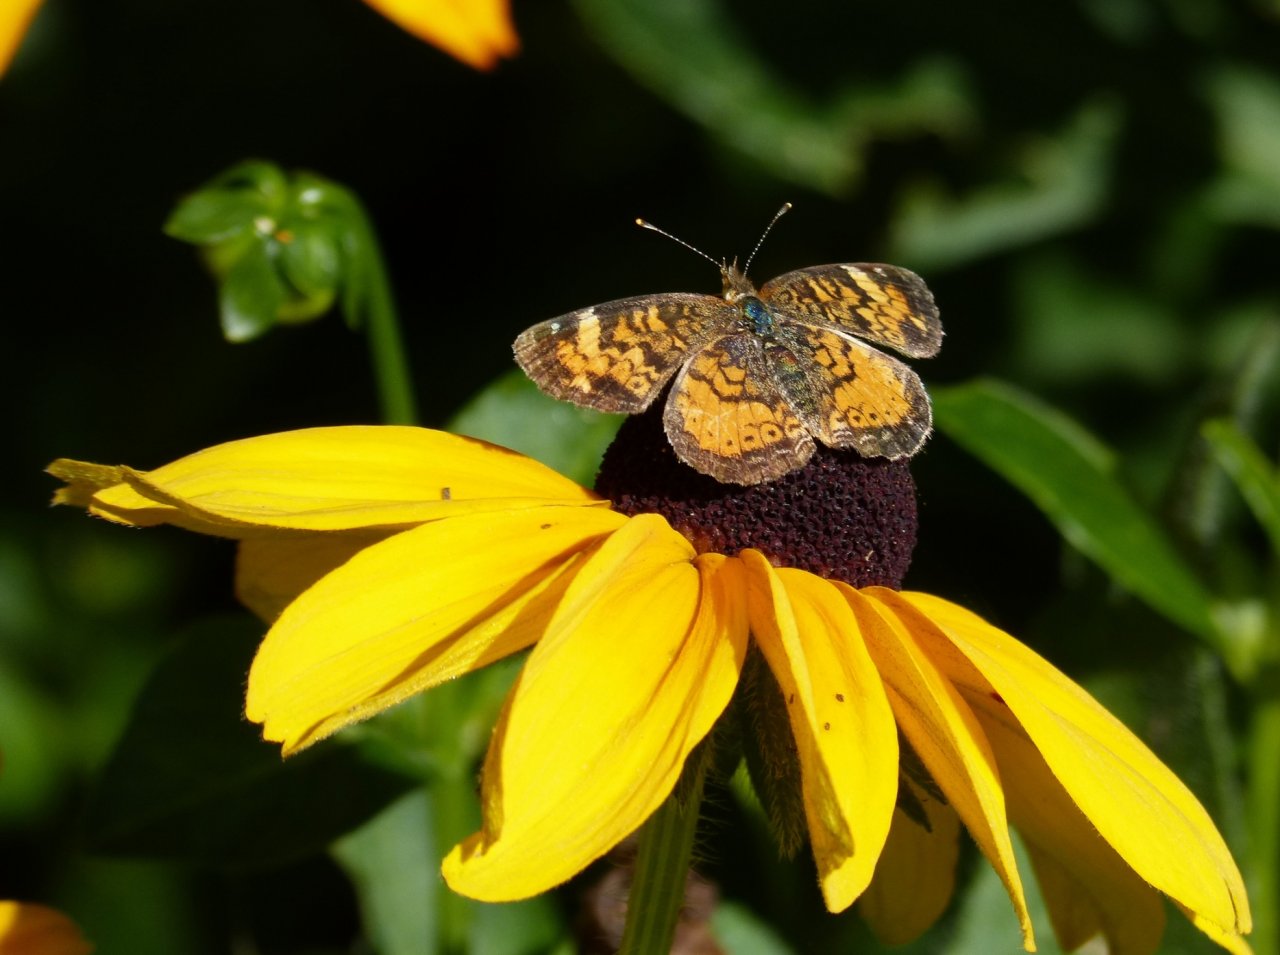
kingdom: Animalia
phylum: Arthropoda
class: Insecta
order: Lepidoptera
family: Nymphalidae
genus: Phyciodes
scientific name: Phyciodes tharos
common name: Northern Crescent
